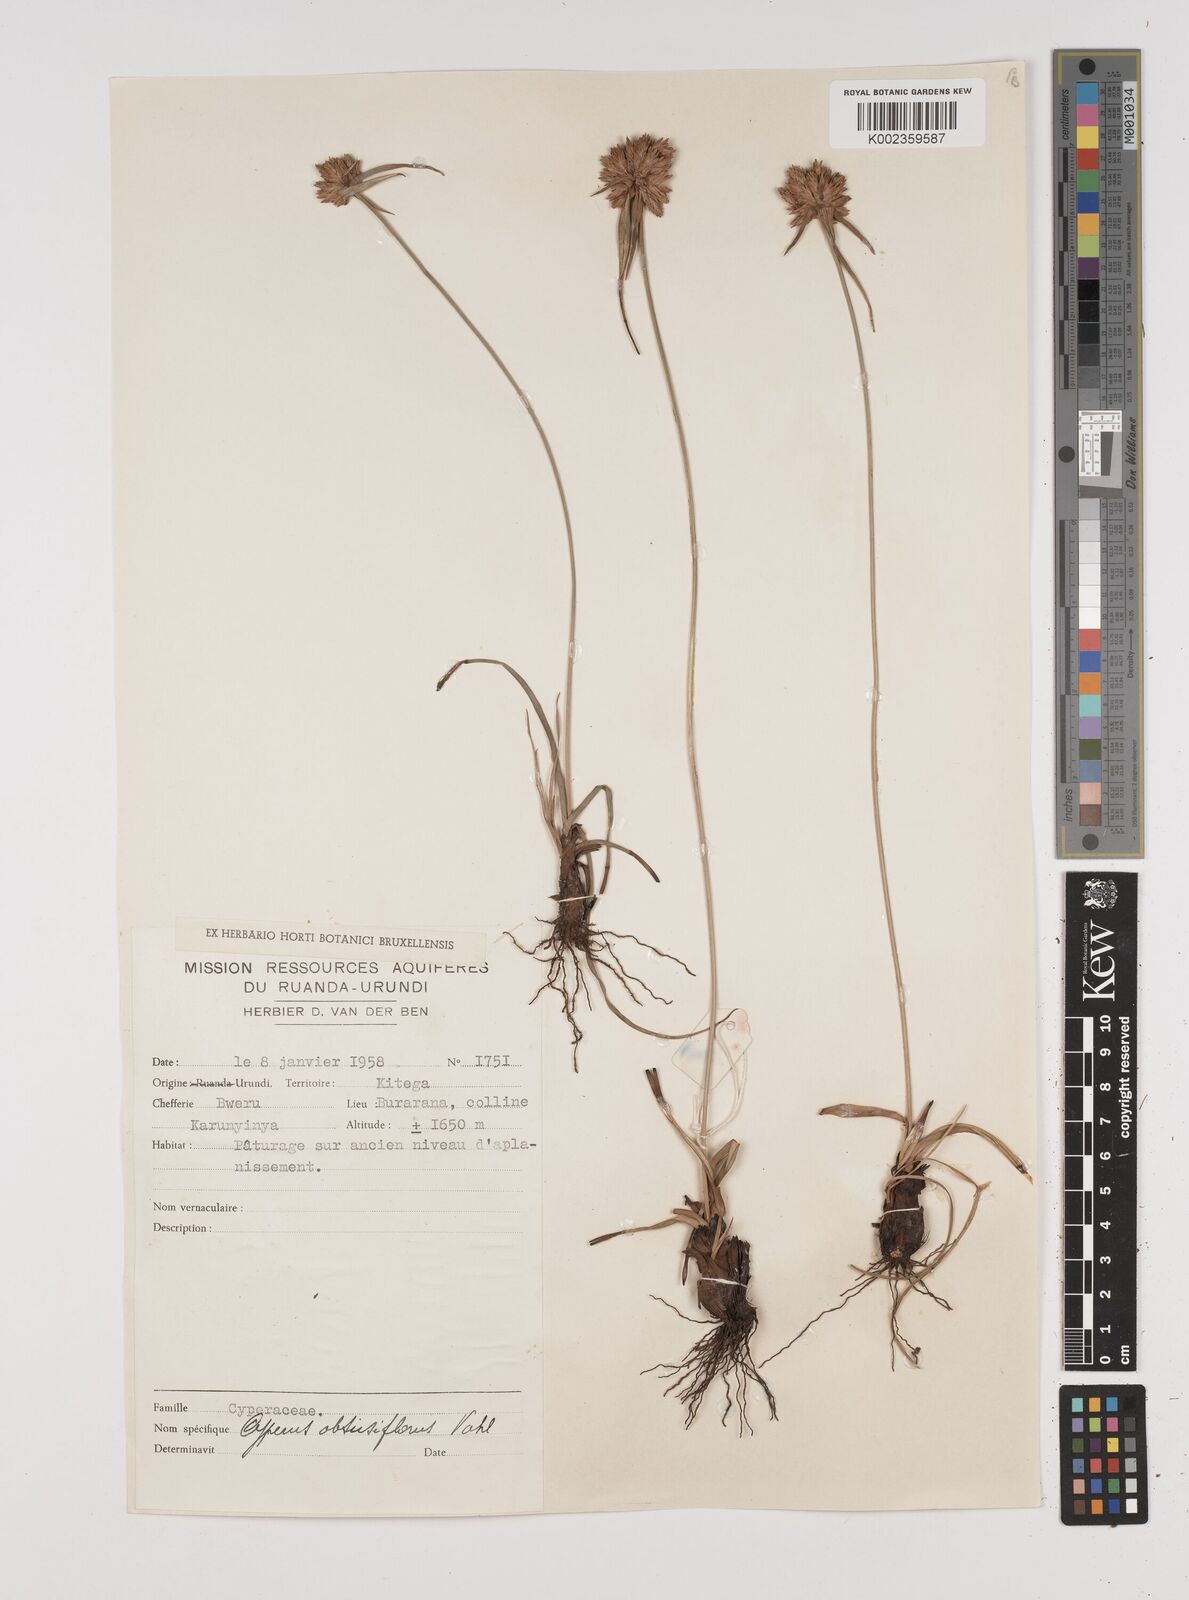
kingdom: Plantae
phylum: Tracheophyta
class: Liliopsida
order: Poales
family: Cyperaceae
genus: Cyperus
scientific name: Cyperus niveus
